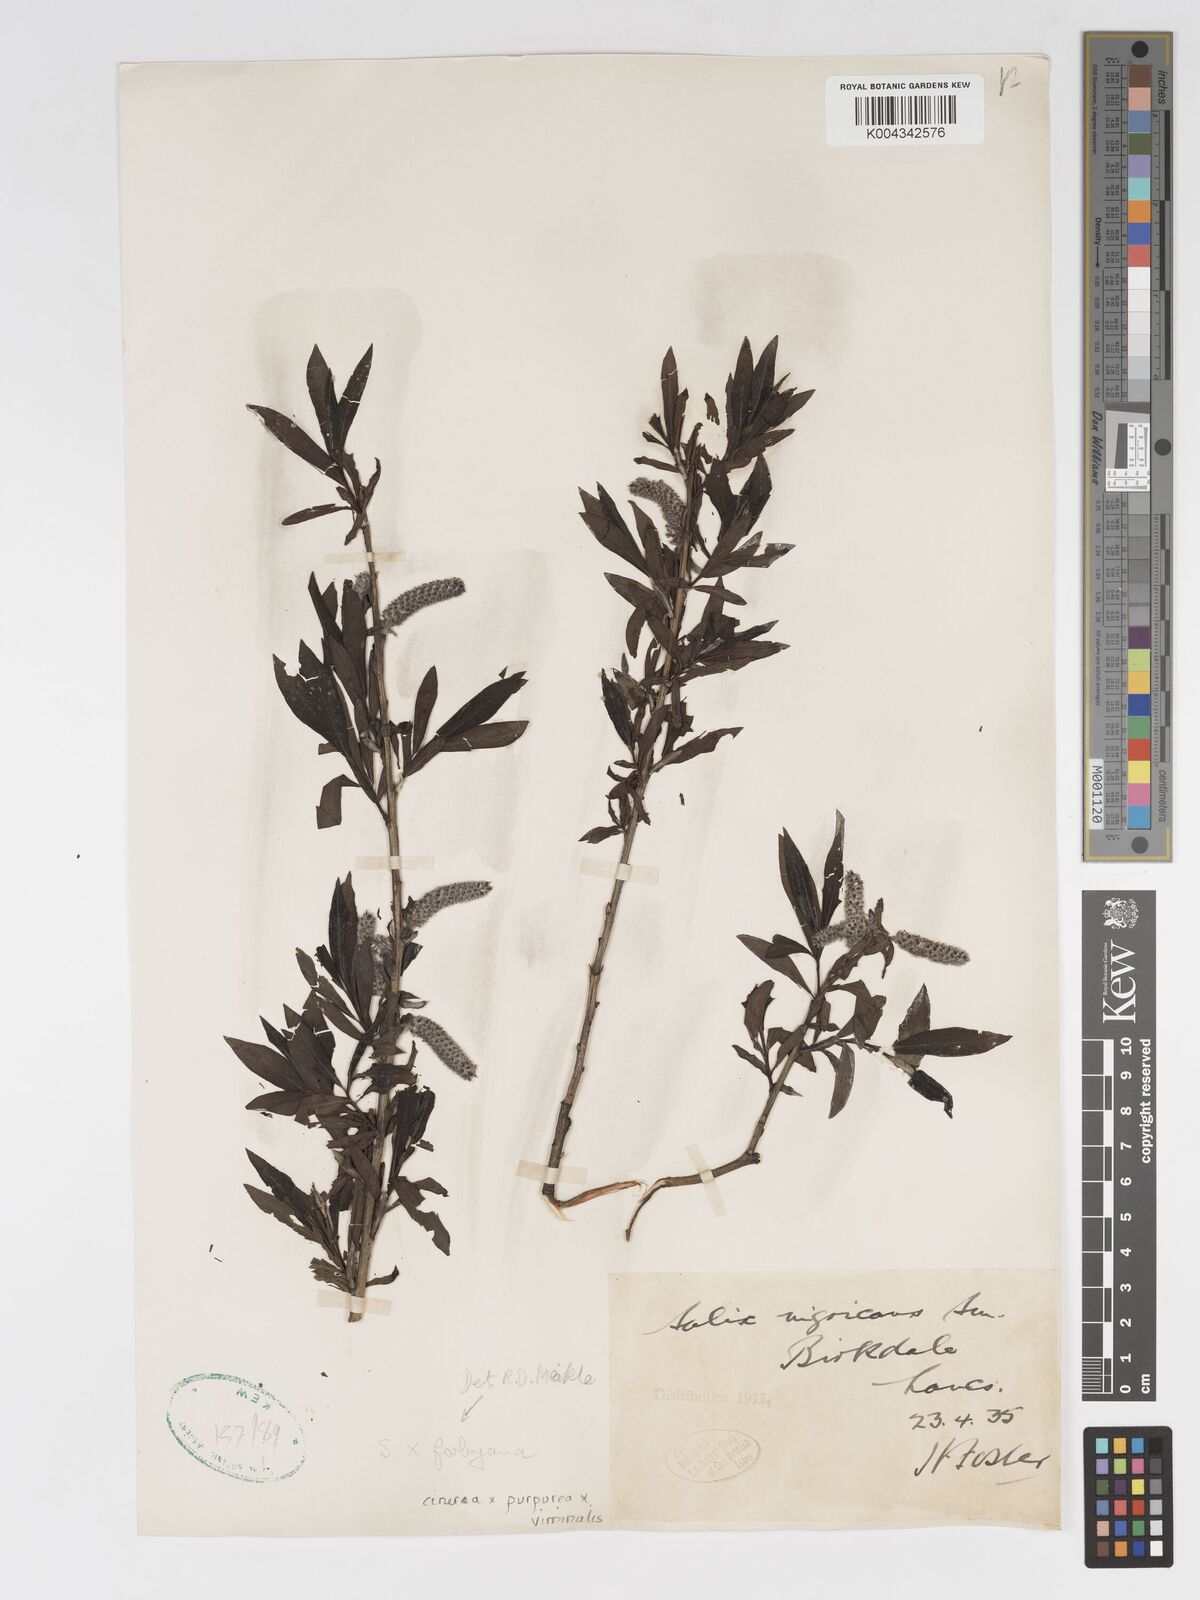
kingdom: Plantae
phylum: Tracheophyta
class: Magnoliopsida
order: Malpighiales
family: Salicaceae
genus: Salix
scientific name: Salix cinerea
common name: Common sallow
